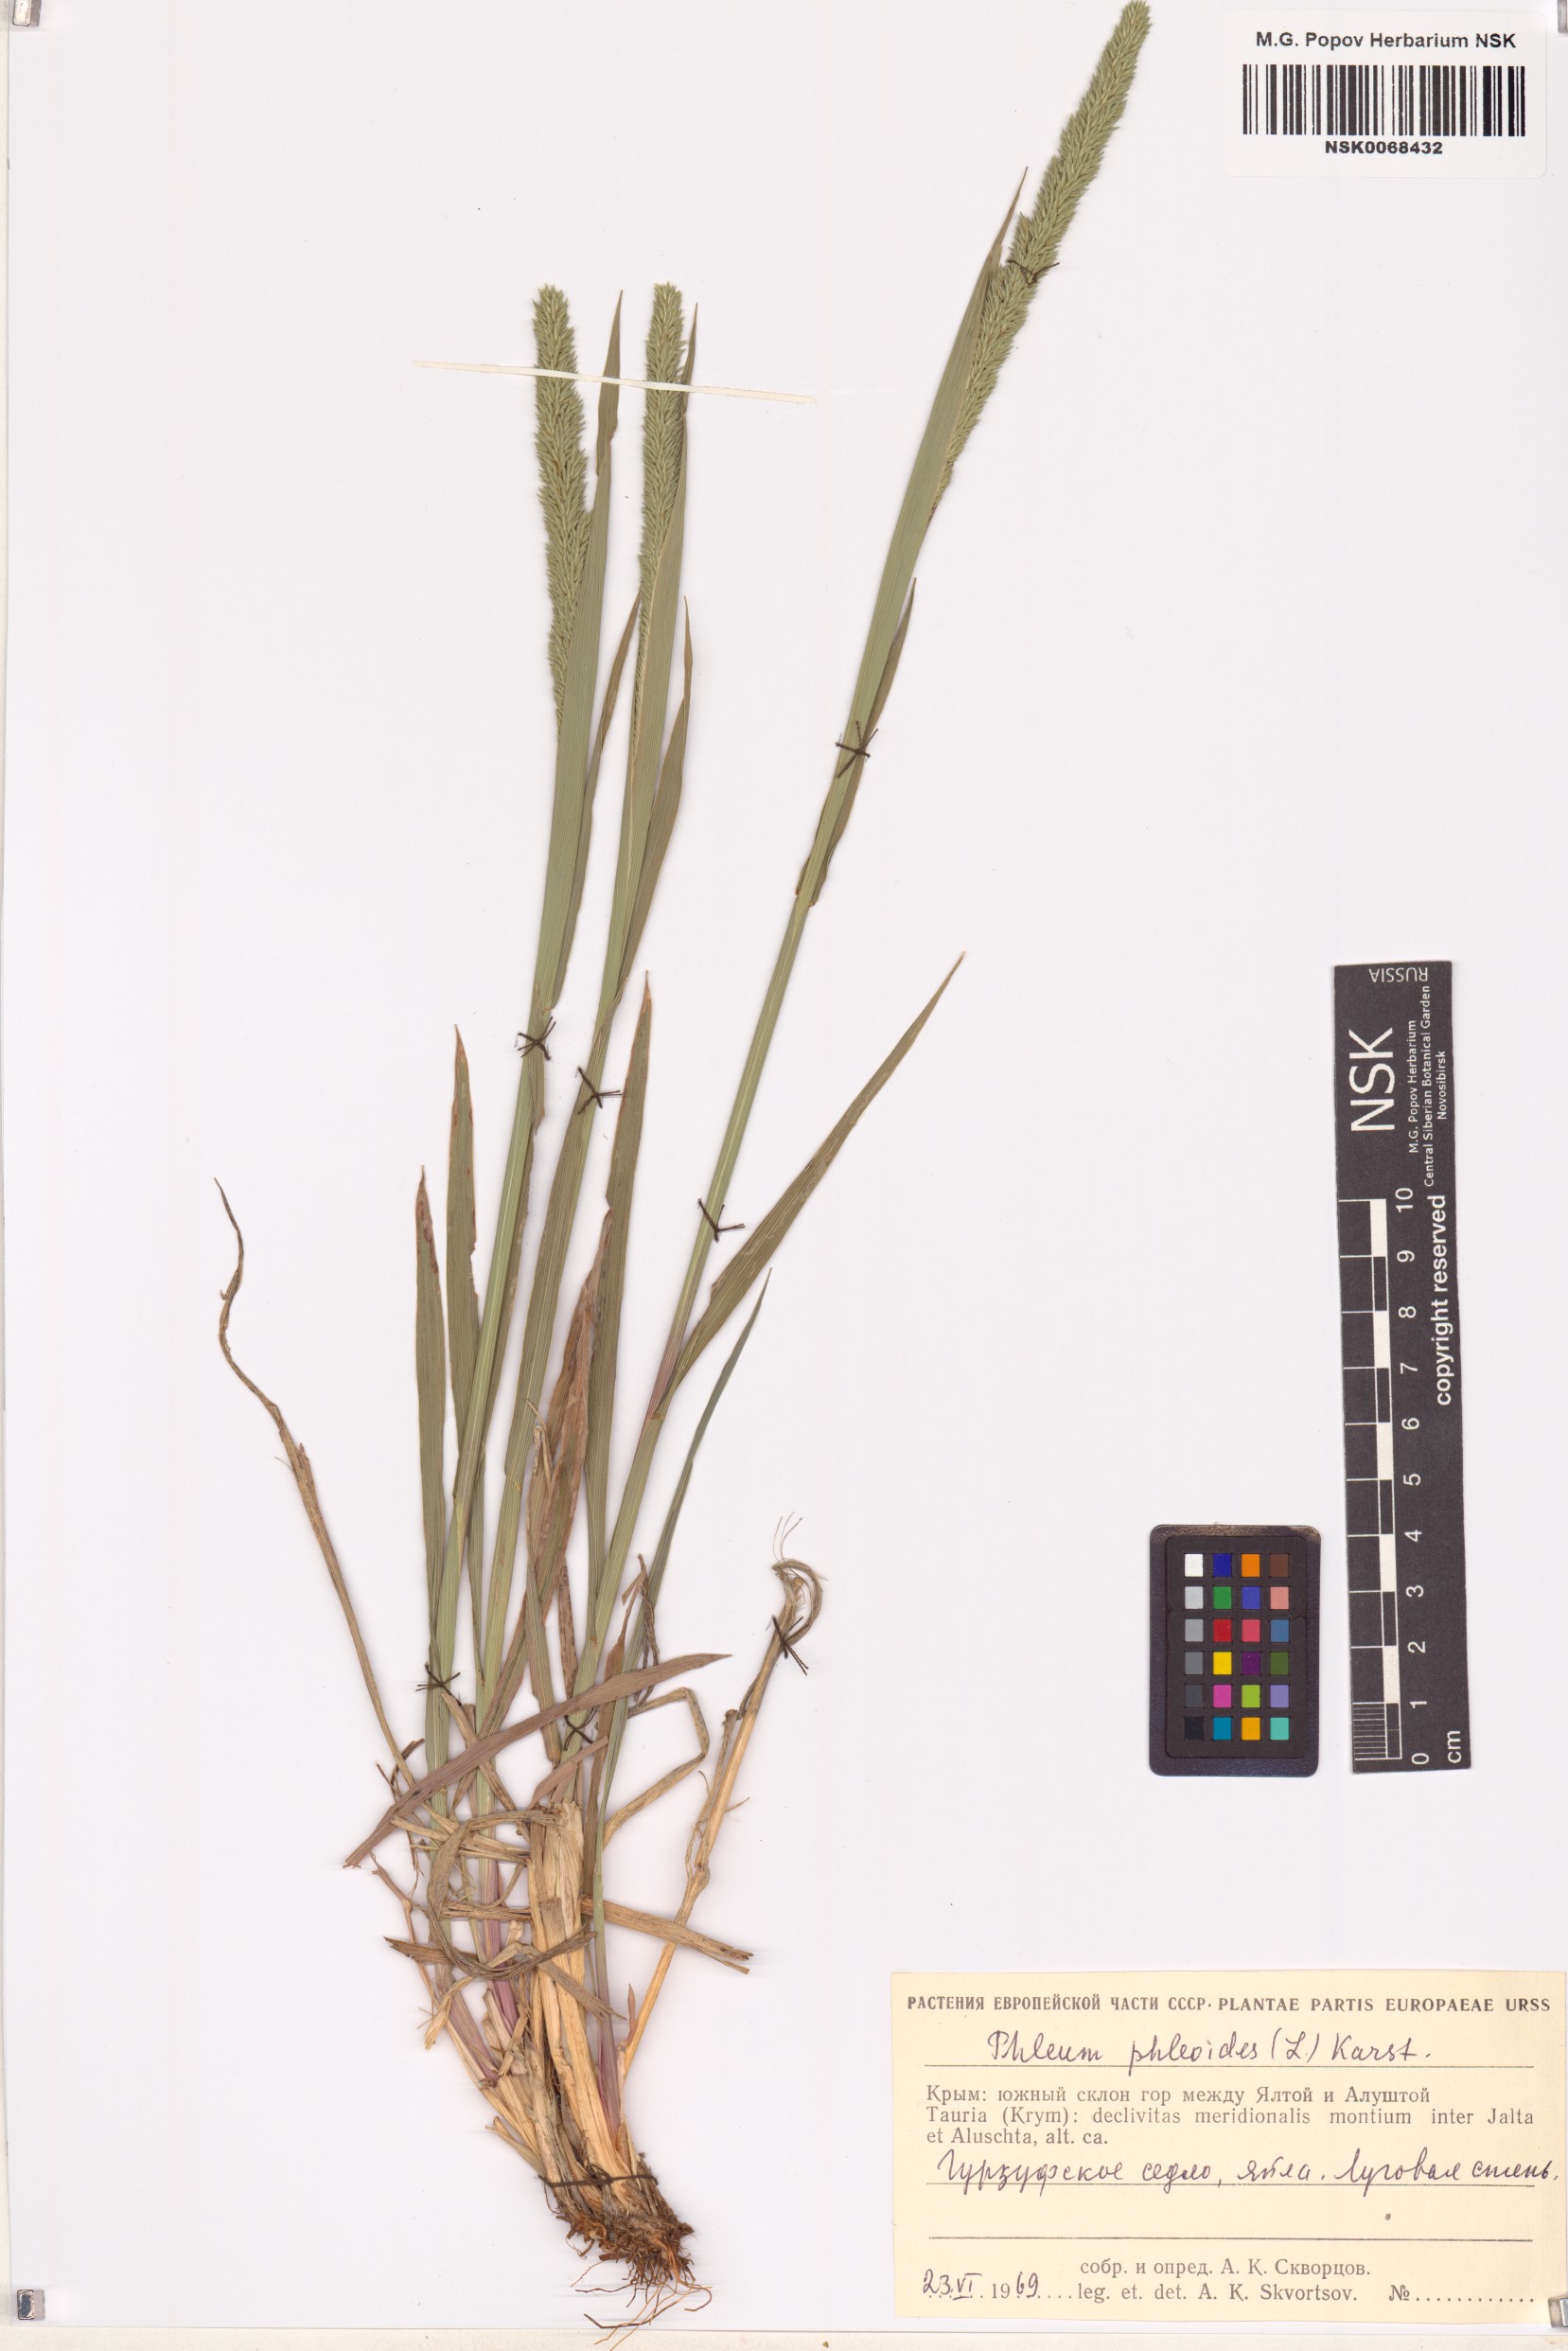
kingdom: Plantae
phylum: Tracheophyta
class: Liliopsida
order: Poales
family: Poaceae
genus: Phleum
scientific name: Phleum phleoides
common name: Purple-stem cat's-tail
